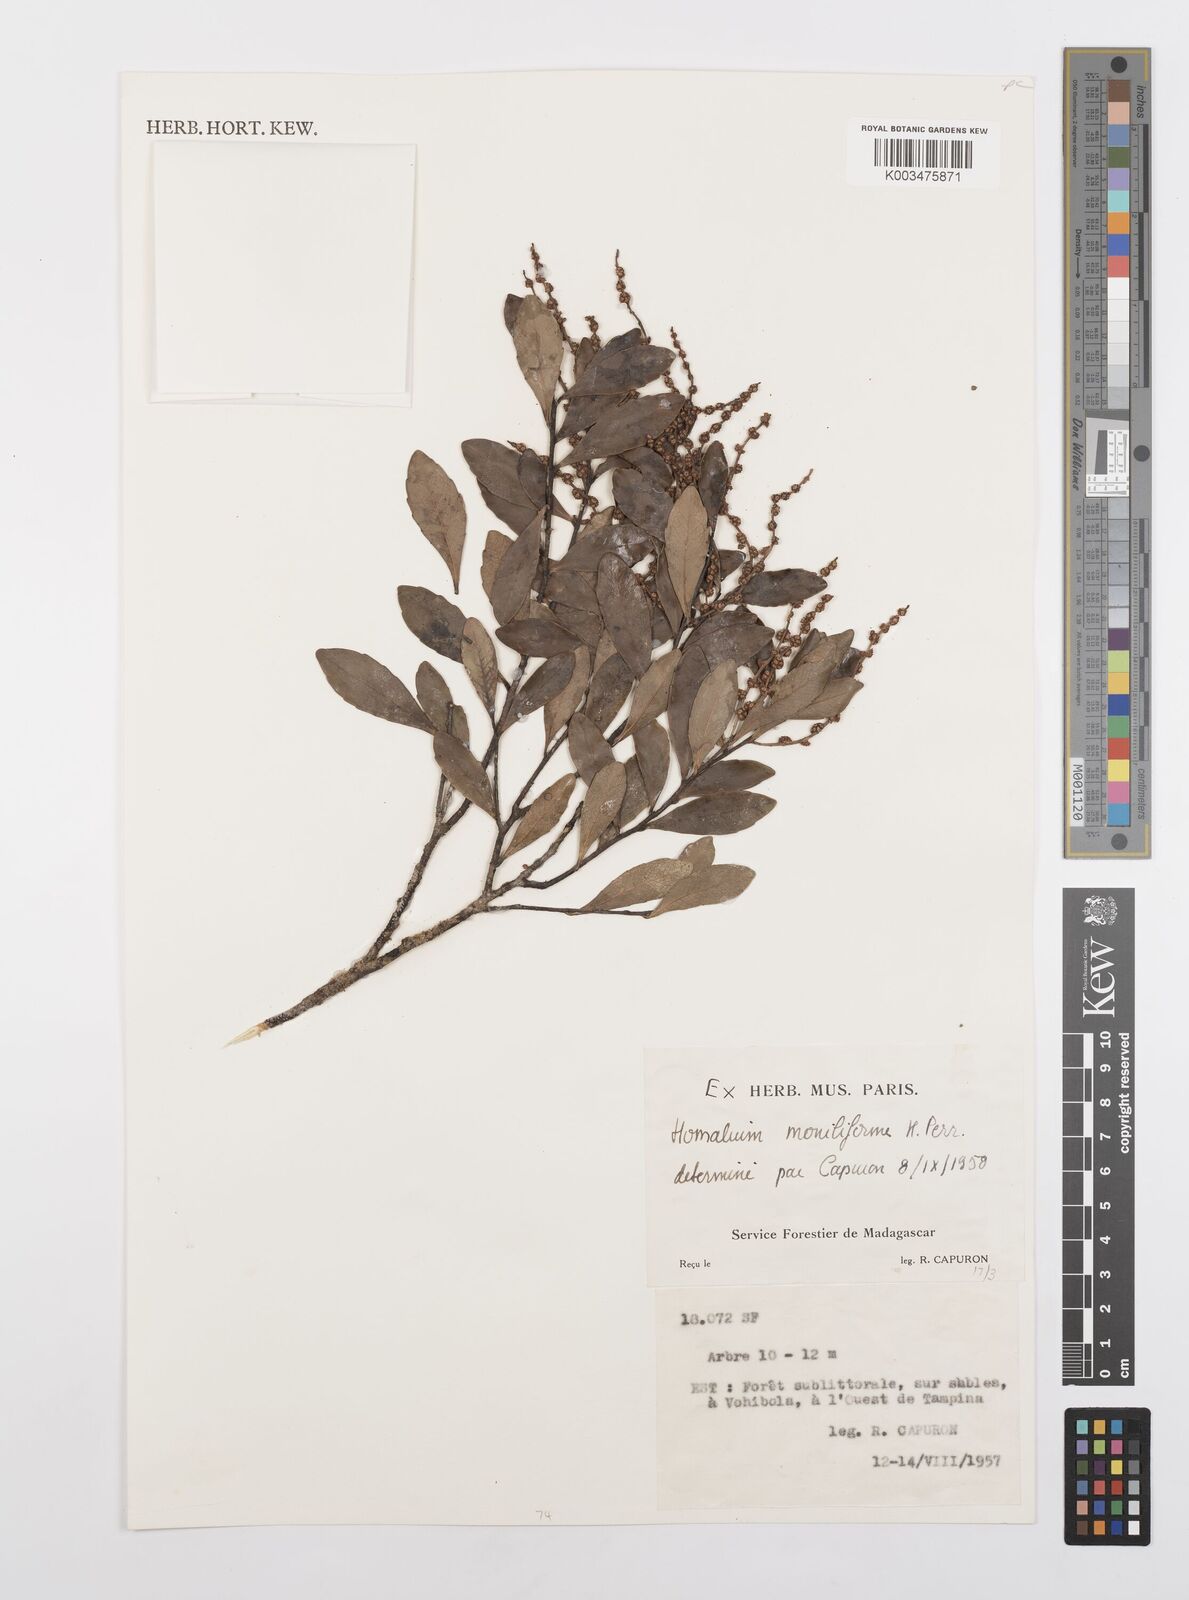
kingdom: Plantae
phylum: Tracheophyta
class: Magnoliopsida
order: Malpighiales
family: Salicaceae
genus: Homalium
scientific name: Homalium moniliforme
